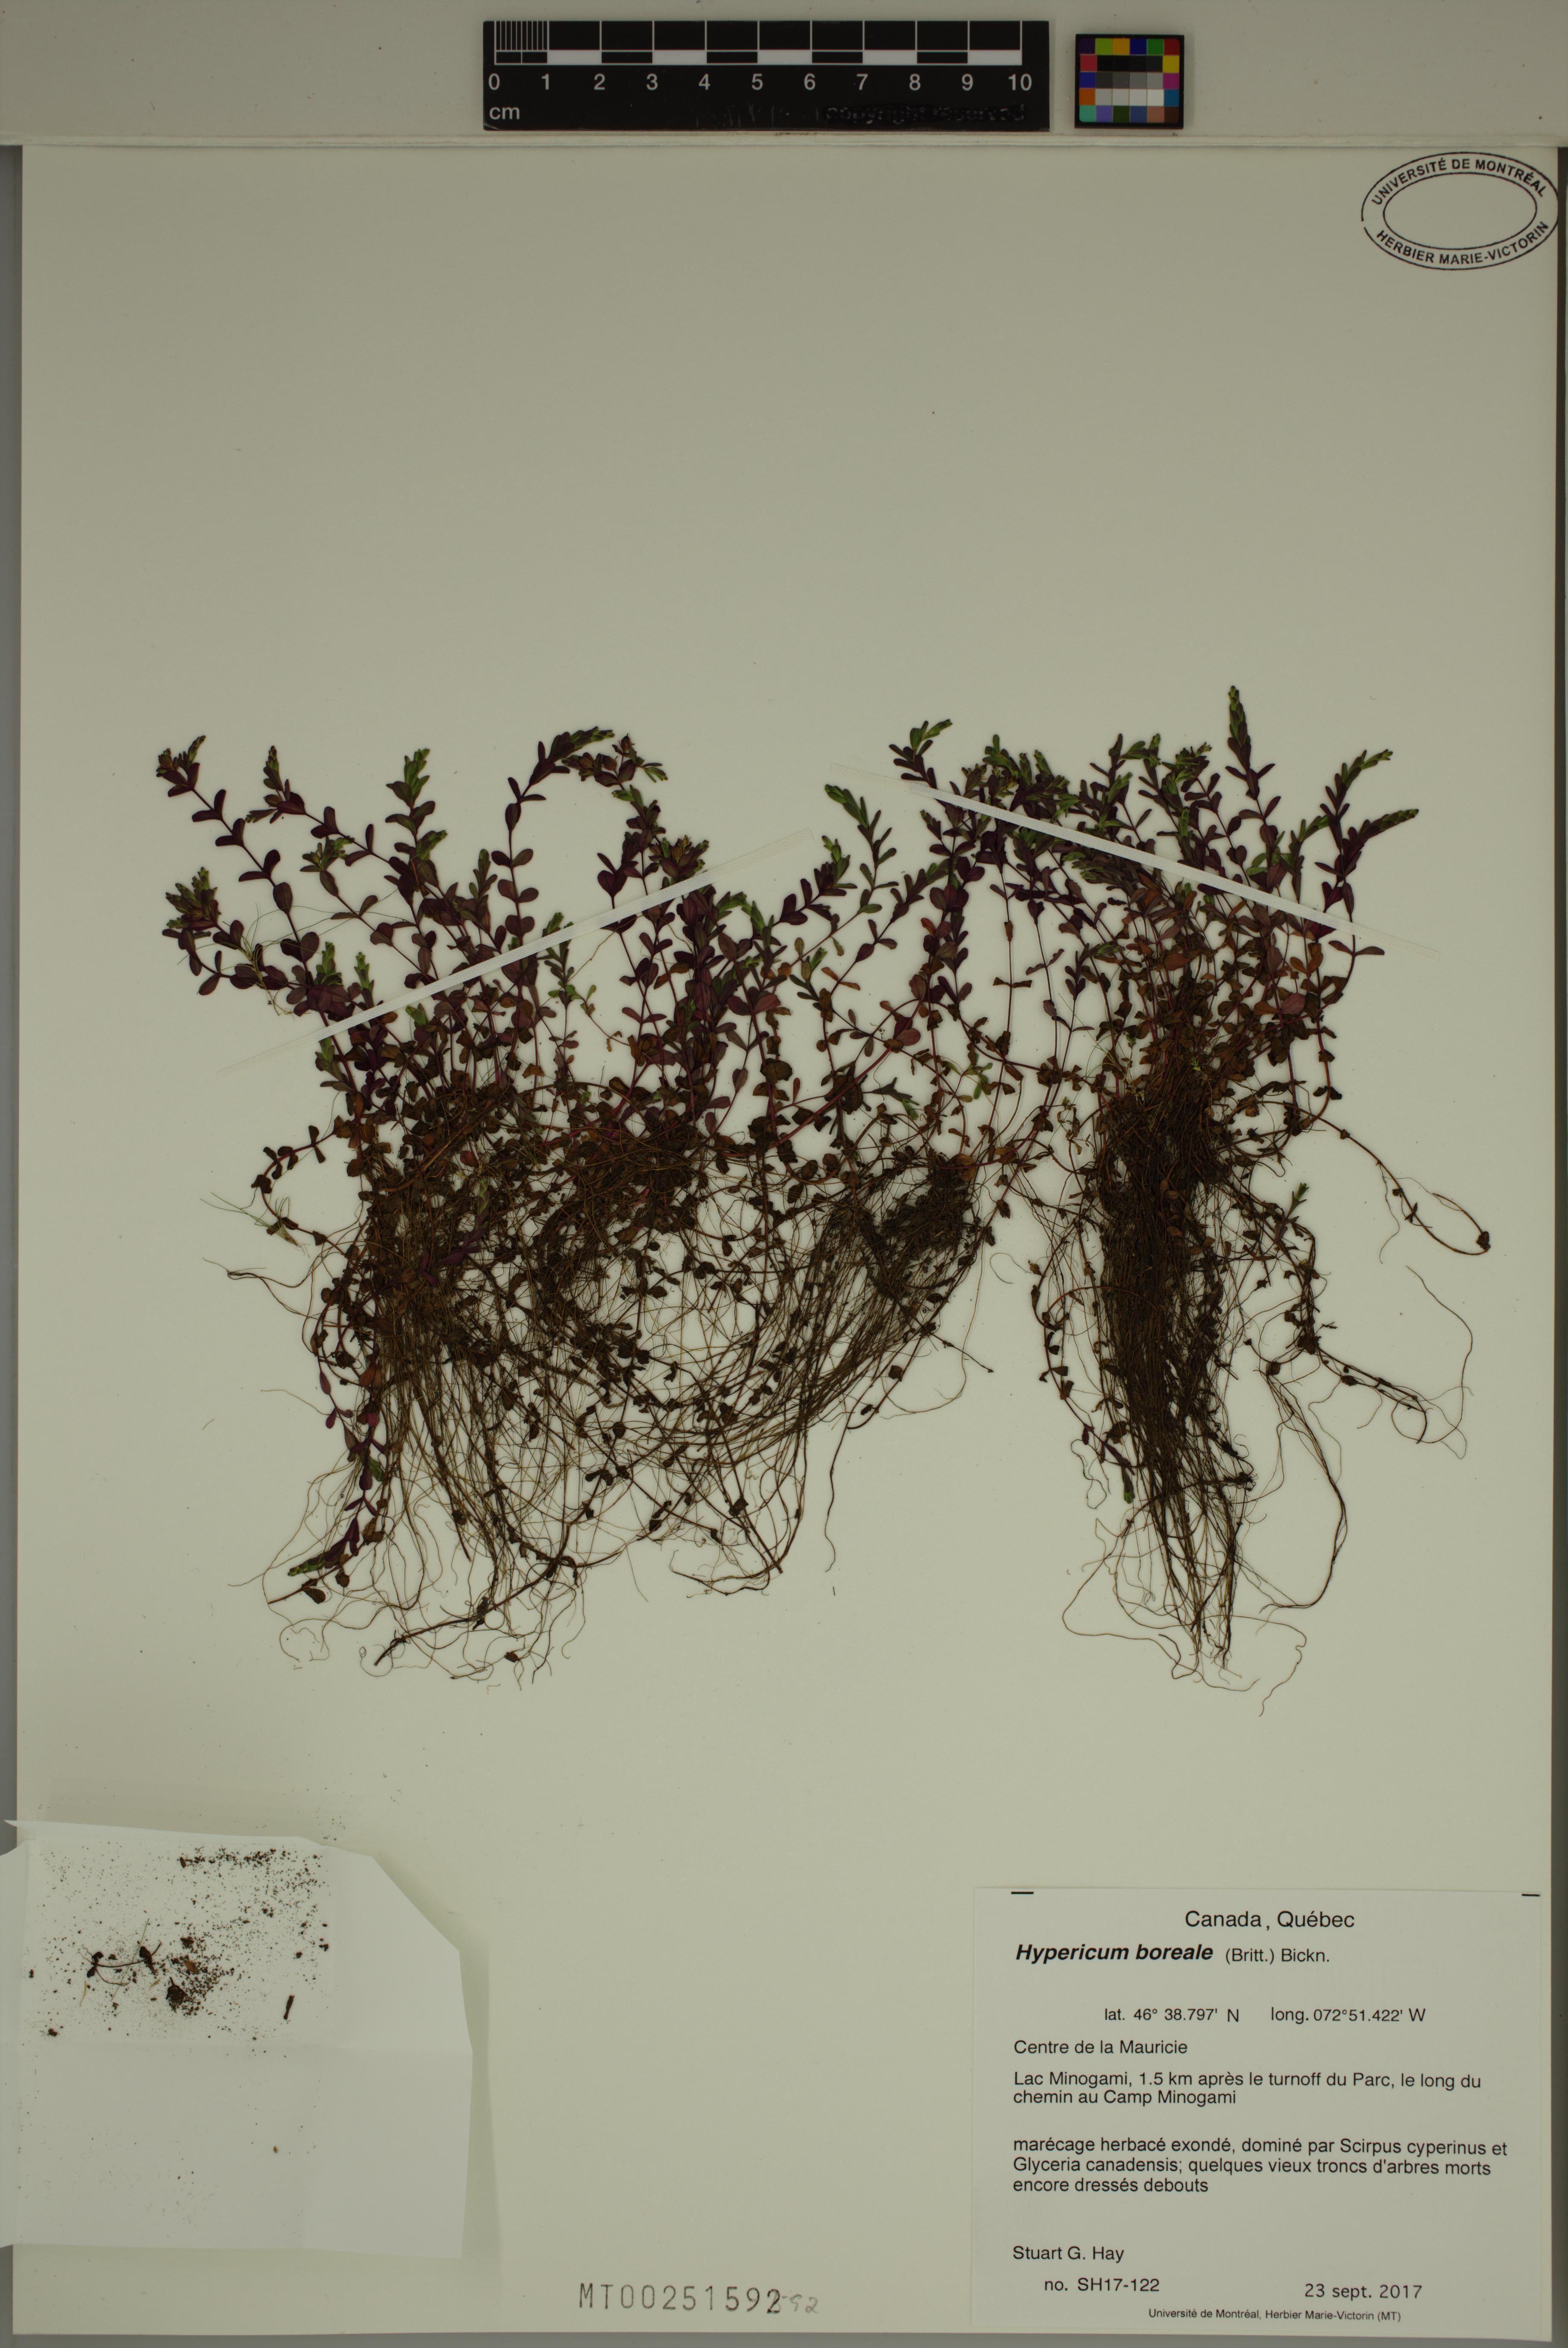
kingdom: Plantae
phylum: Tracheophyta
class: Magnoliopsida
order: Malpighiales
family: Hypericaceae
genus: Hypericum
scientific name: Hypericum boreale
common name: Northern bog st. john's-wort
